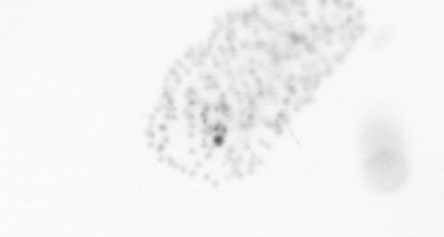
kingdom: Chromista
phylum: Ochrophyta
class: Bacillariophyceae
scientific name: Bacillariophyceae
